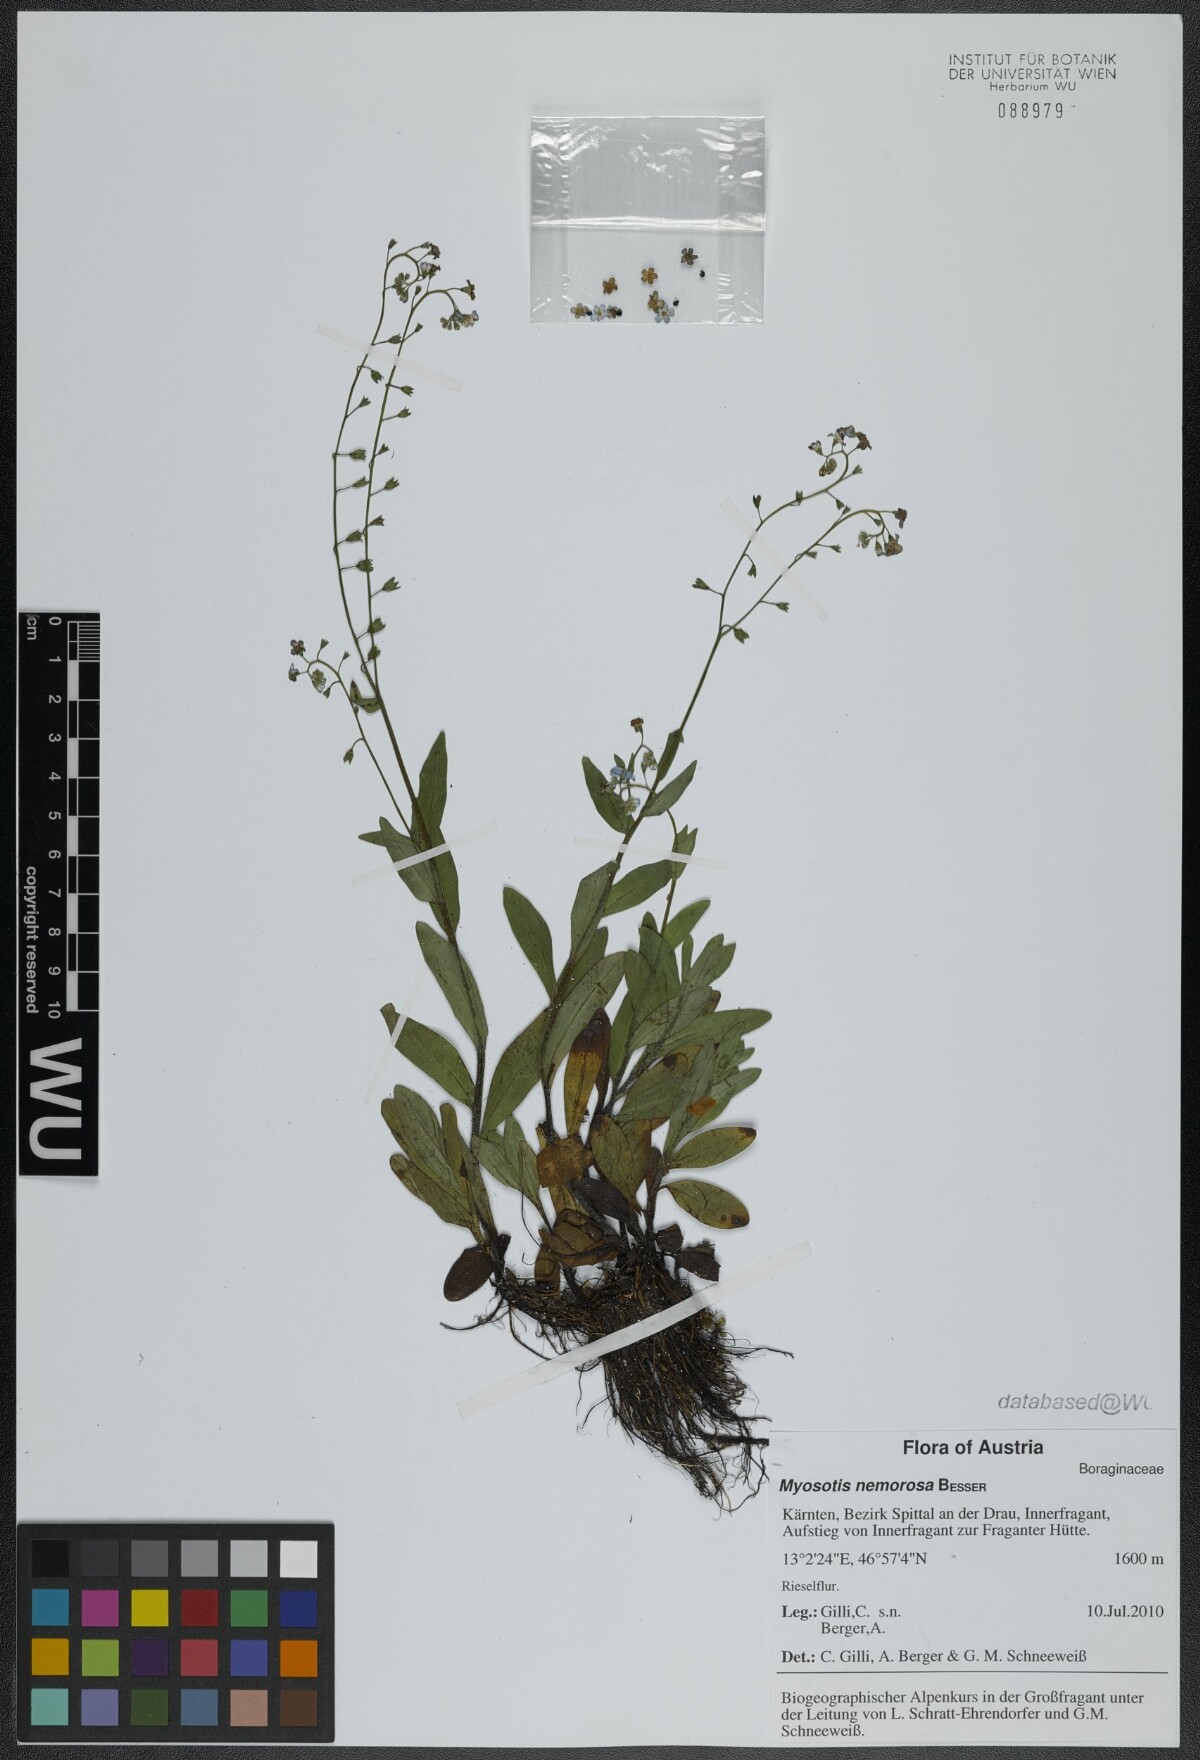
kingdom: Plantae
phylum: Tracheophyta
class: Magnoliopsida
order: Boraginales
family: Boraginaceae
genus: Myosotis
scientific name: Myosotis nemorosa
